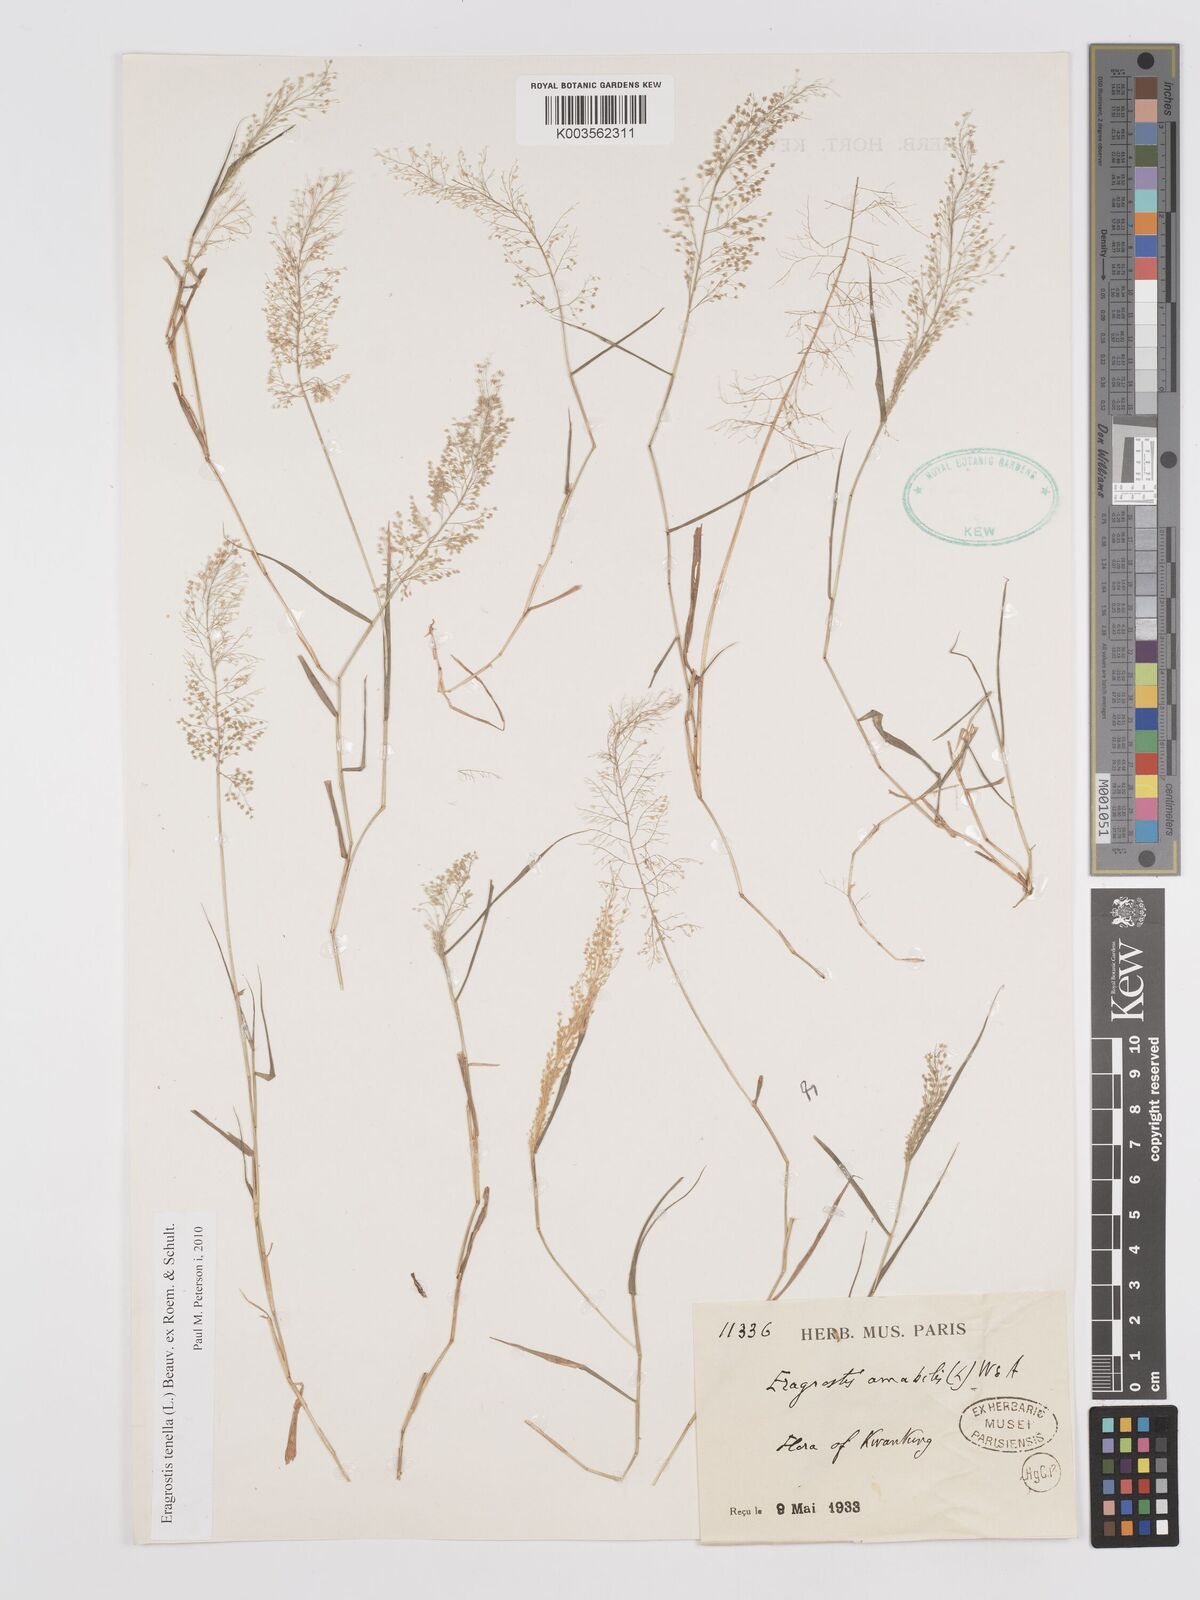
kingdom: Plantae
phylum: Tracheophyta
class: Liliopsida
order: Poales
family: Poaceae
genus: Eragrostis
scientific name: Eragrostis tenella
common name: Japanese lovegrass
